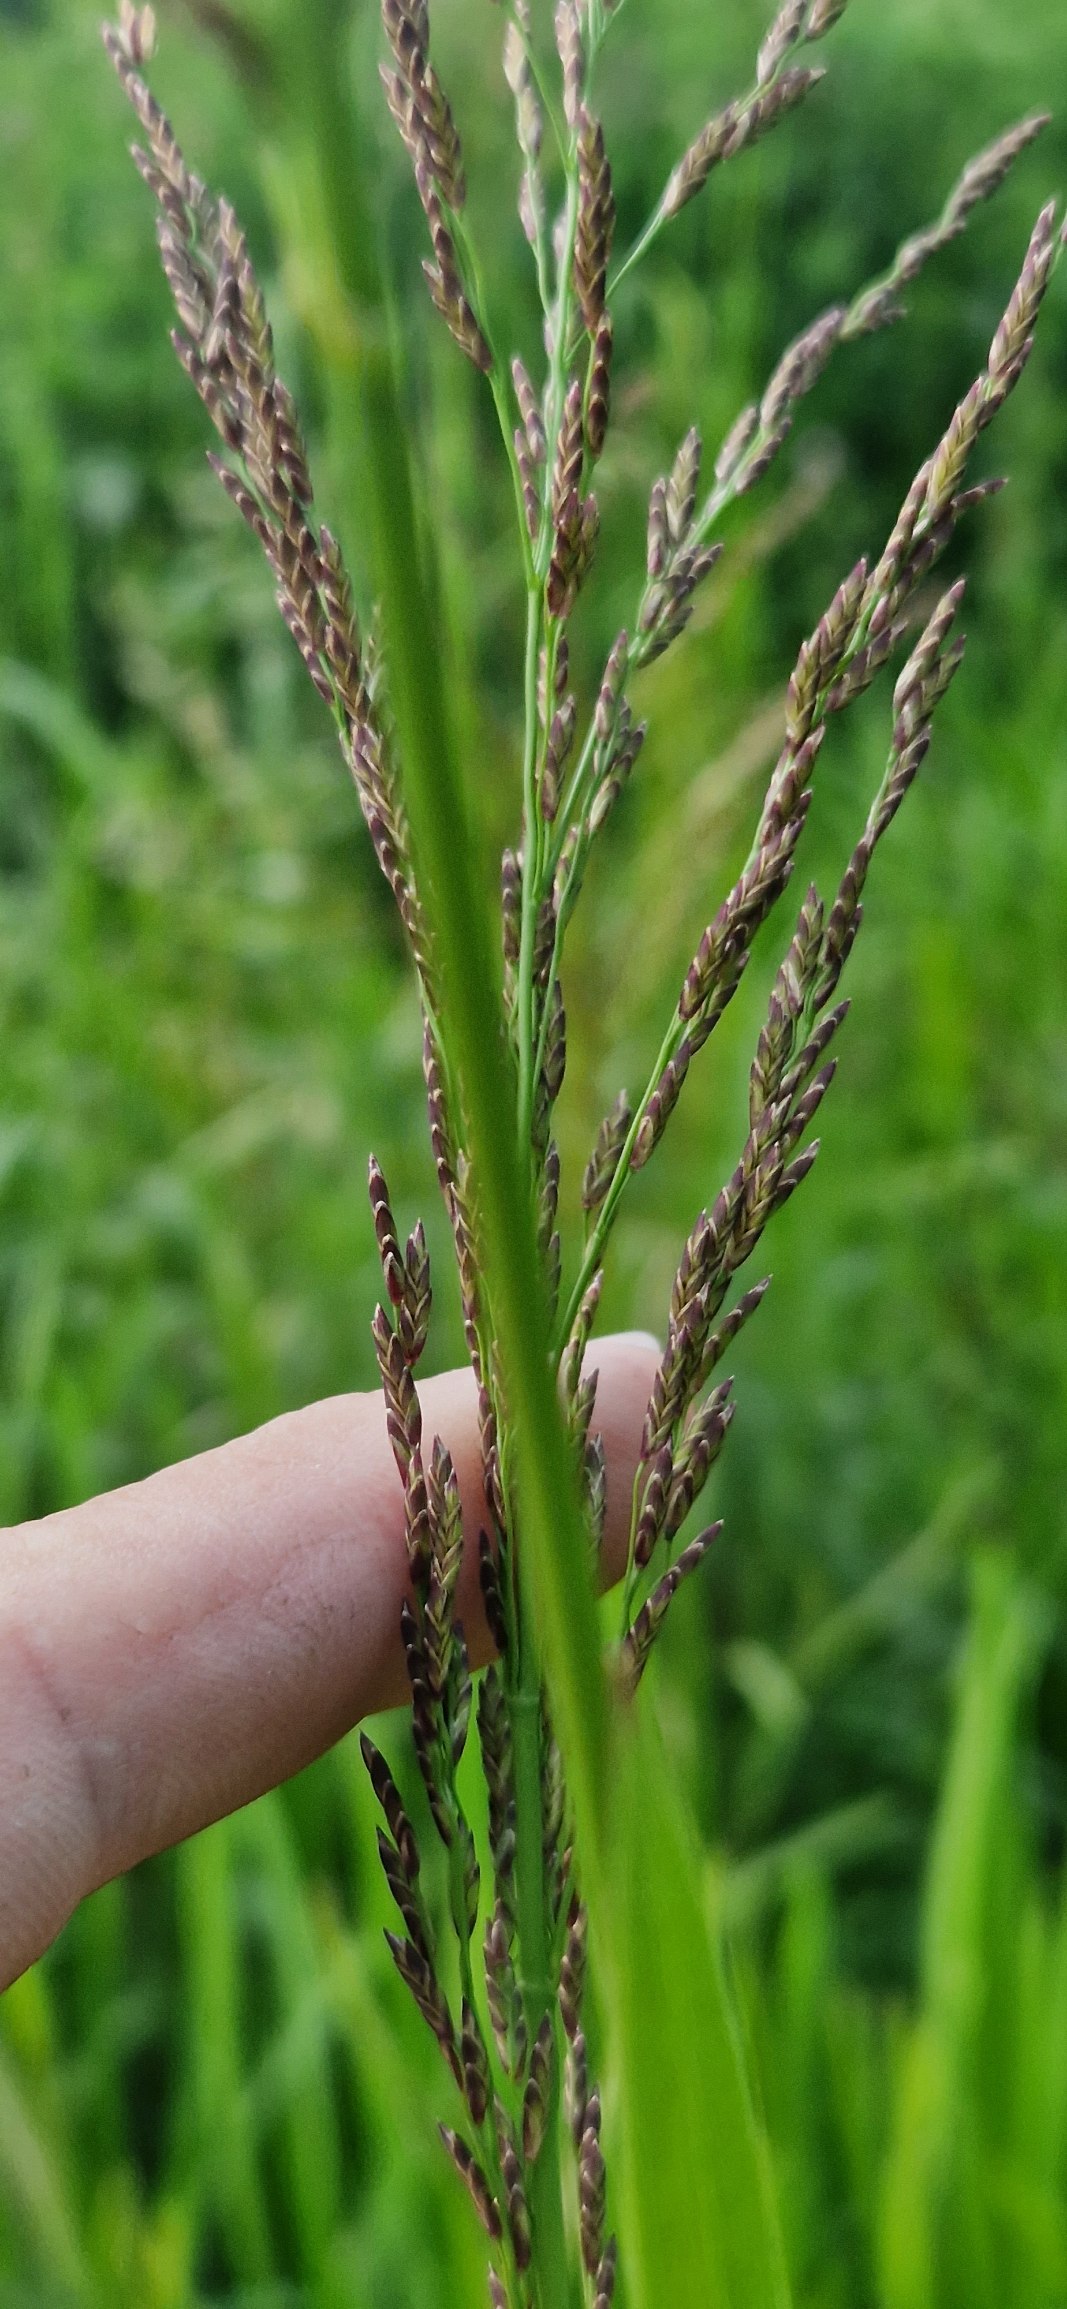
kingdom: Plantae
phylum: Tracheophyta
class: Liliopsida
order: Poales
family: Poaceae
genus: Glyceria
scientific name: Glyceria maxima
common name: Høj sødgræs
